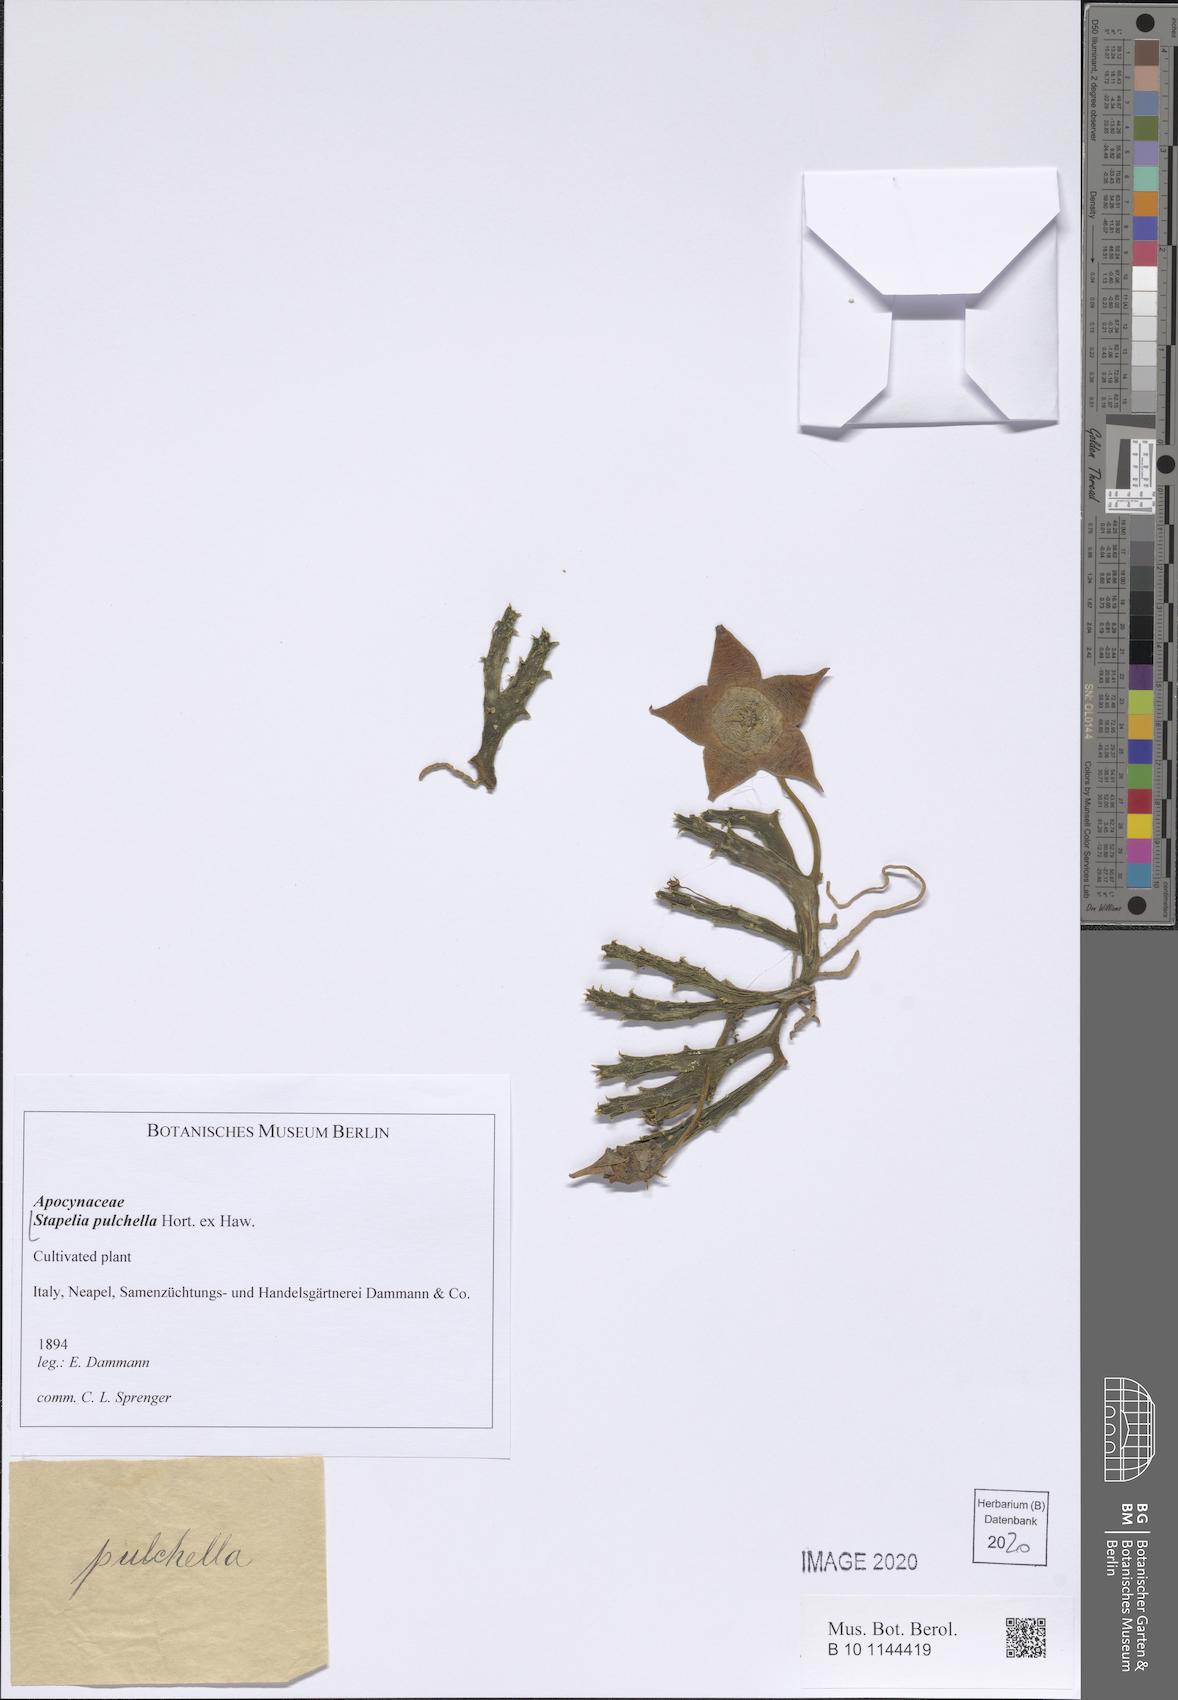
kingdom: Plantae
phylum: Tracheophyta
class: Magnoliopsida
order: Gentianales
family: Apocynaceae
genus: Ceropegia
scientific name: Ceropegia pulchella
